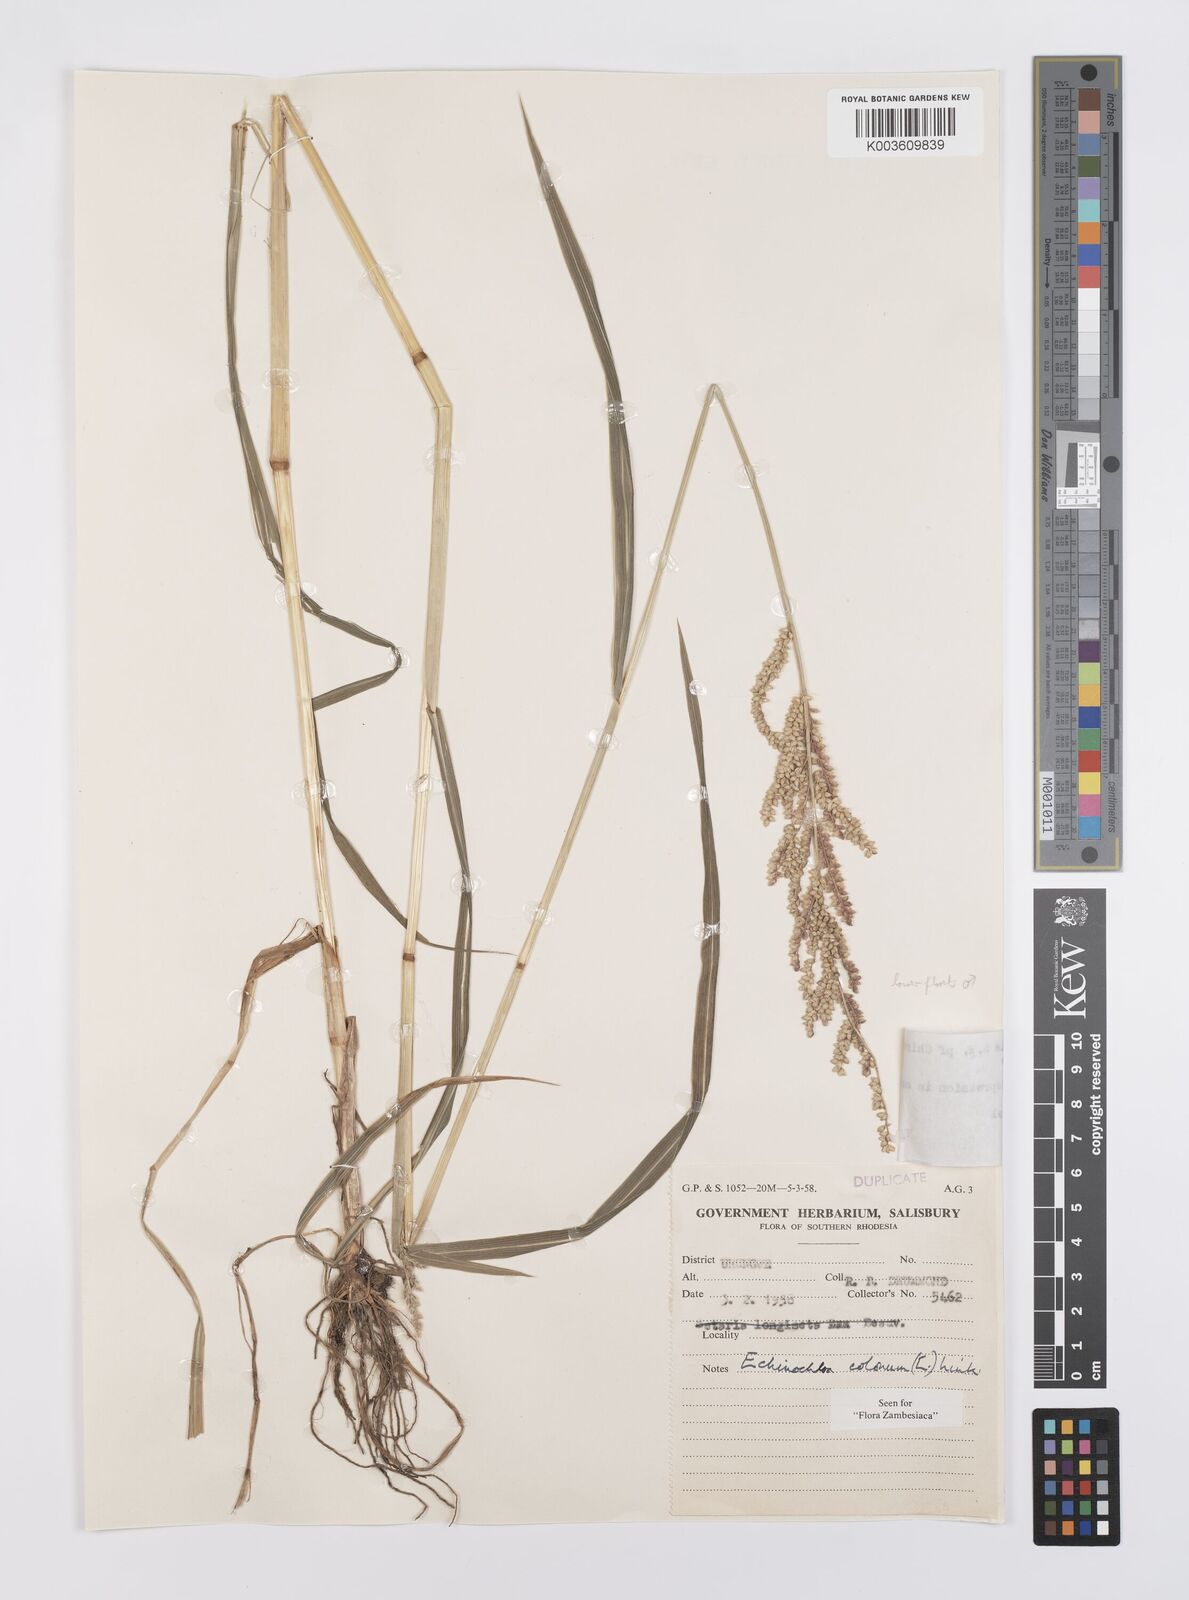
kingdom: Plantae
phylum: Tracheophyta
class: Liliopsida
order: Poales
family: Poaceae
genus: Echinochloa
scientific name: Echinochloa colonum
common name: Jungle rice
